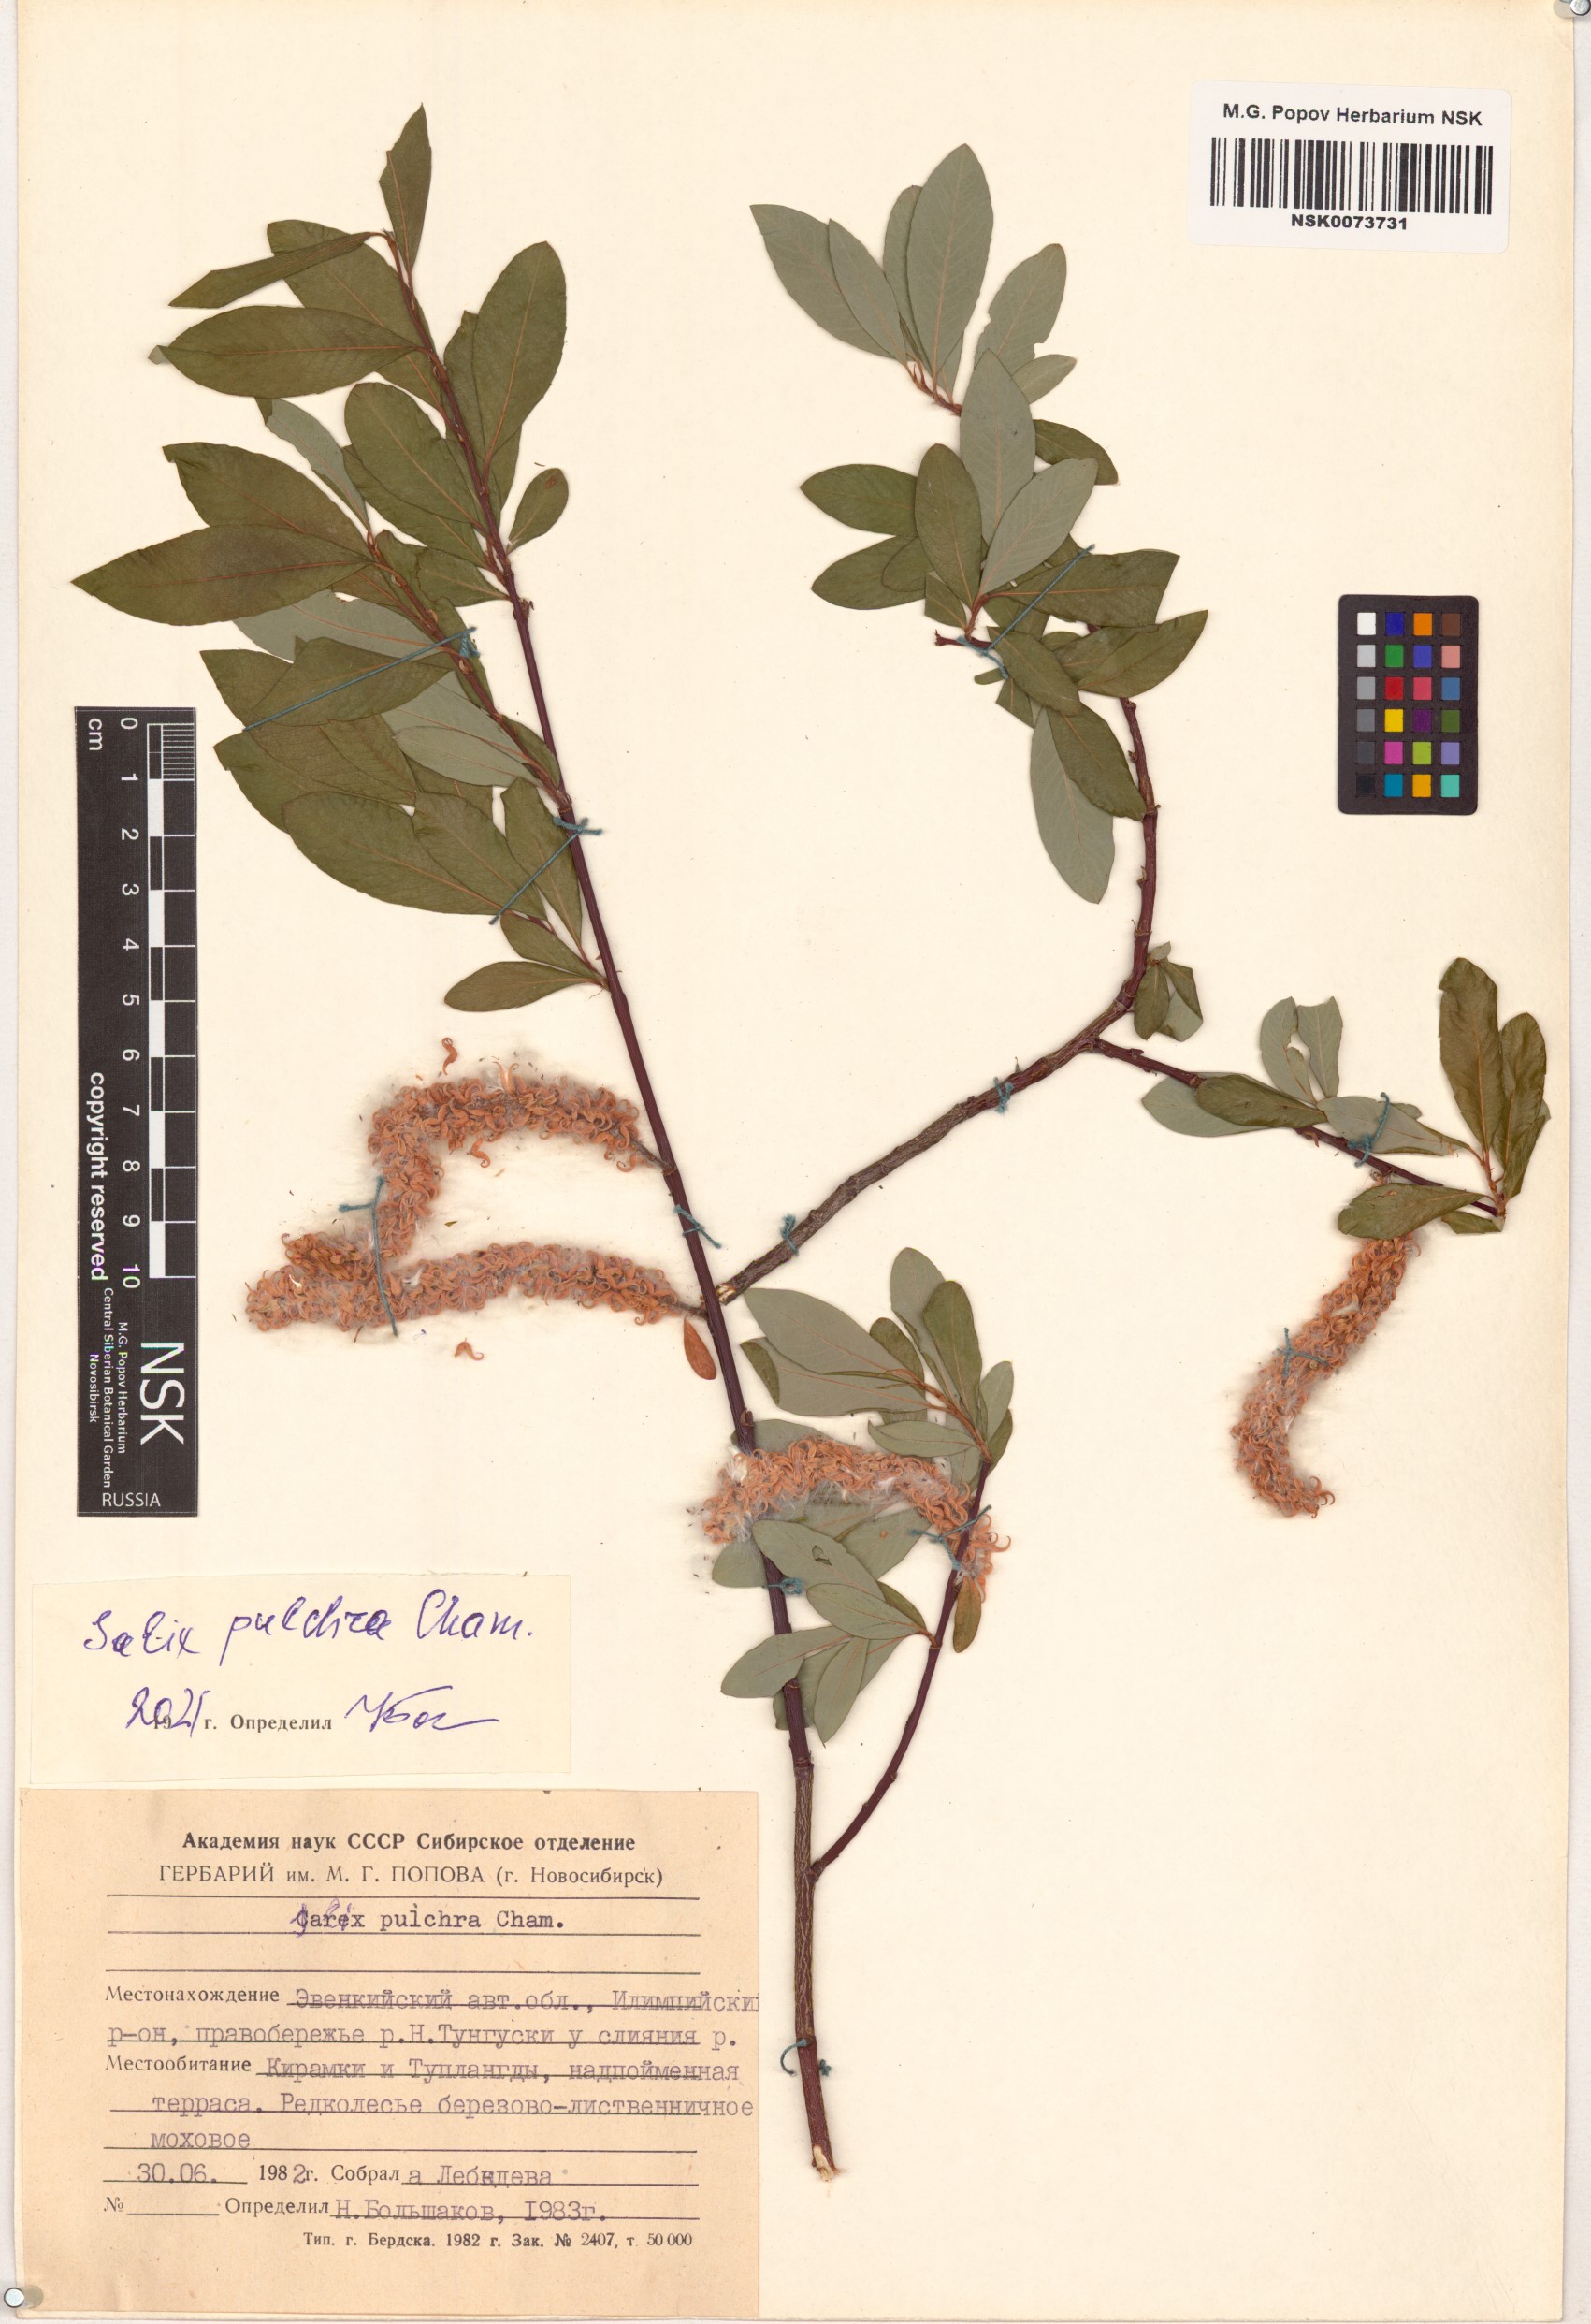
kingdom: Plantae
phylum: Tracheophyta
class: Magnoliopsida
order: Malpighiales
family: Salicaceae
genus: Salix
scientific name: Salix pulchra
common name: Diamond-leaved willow
